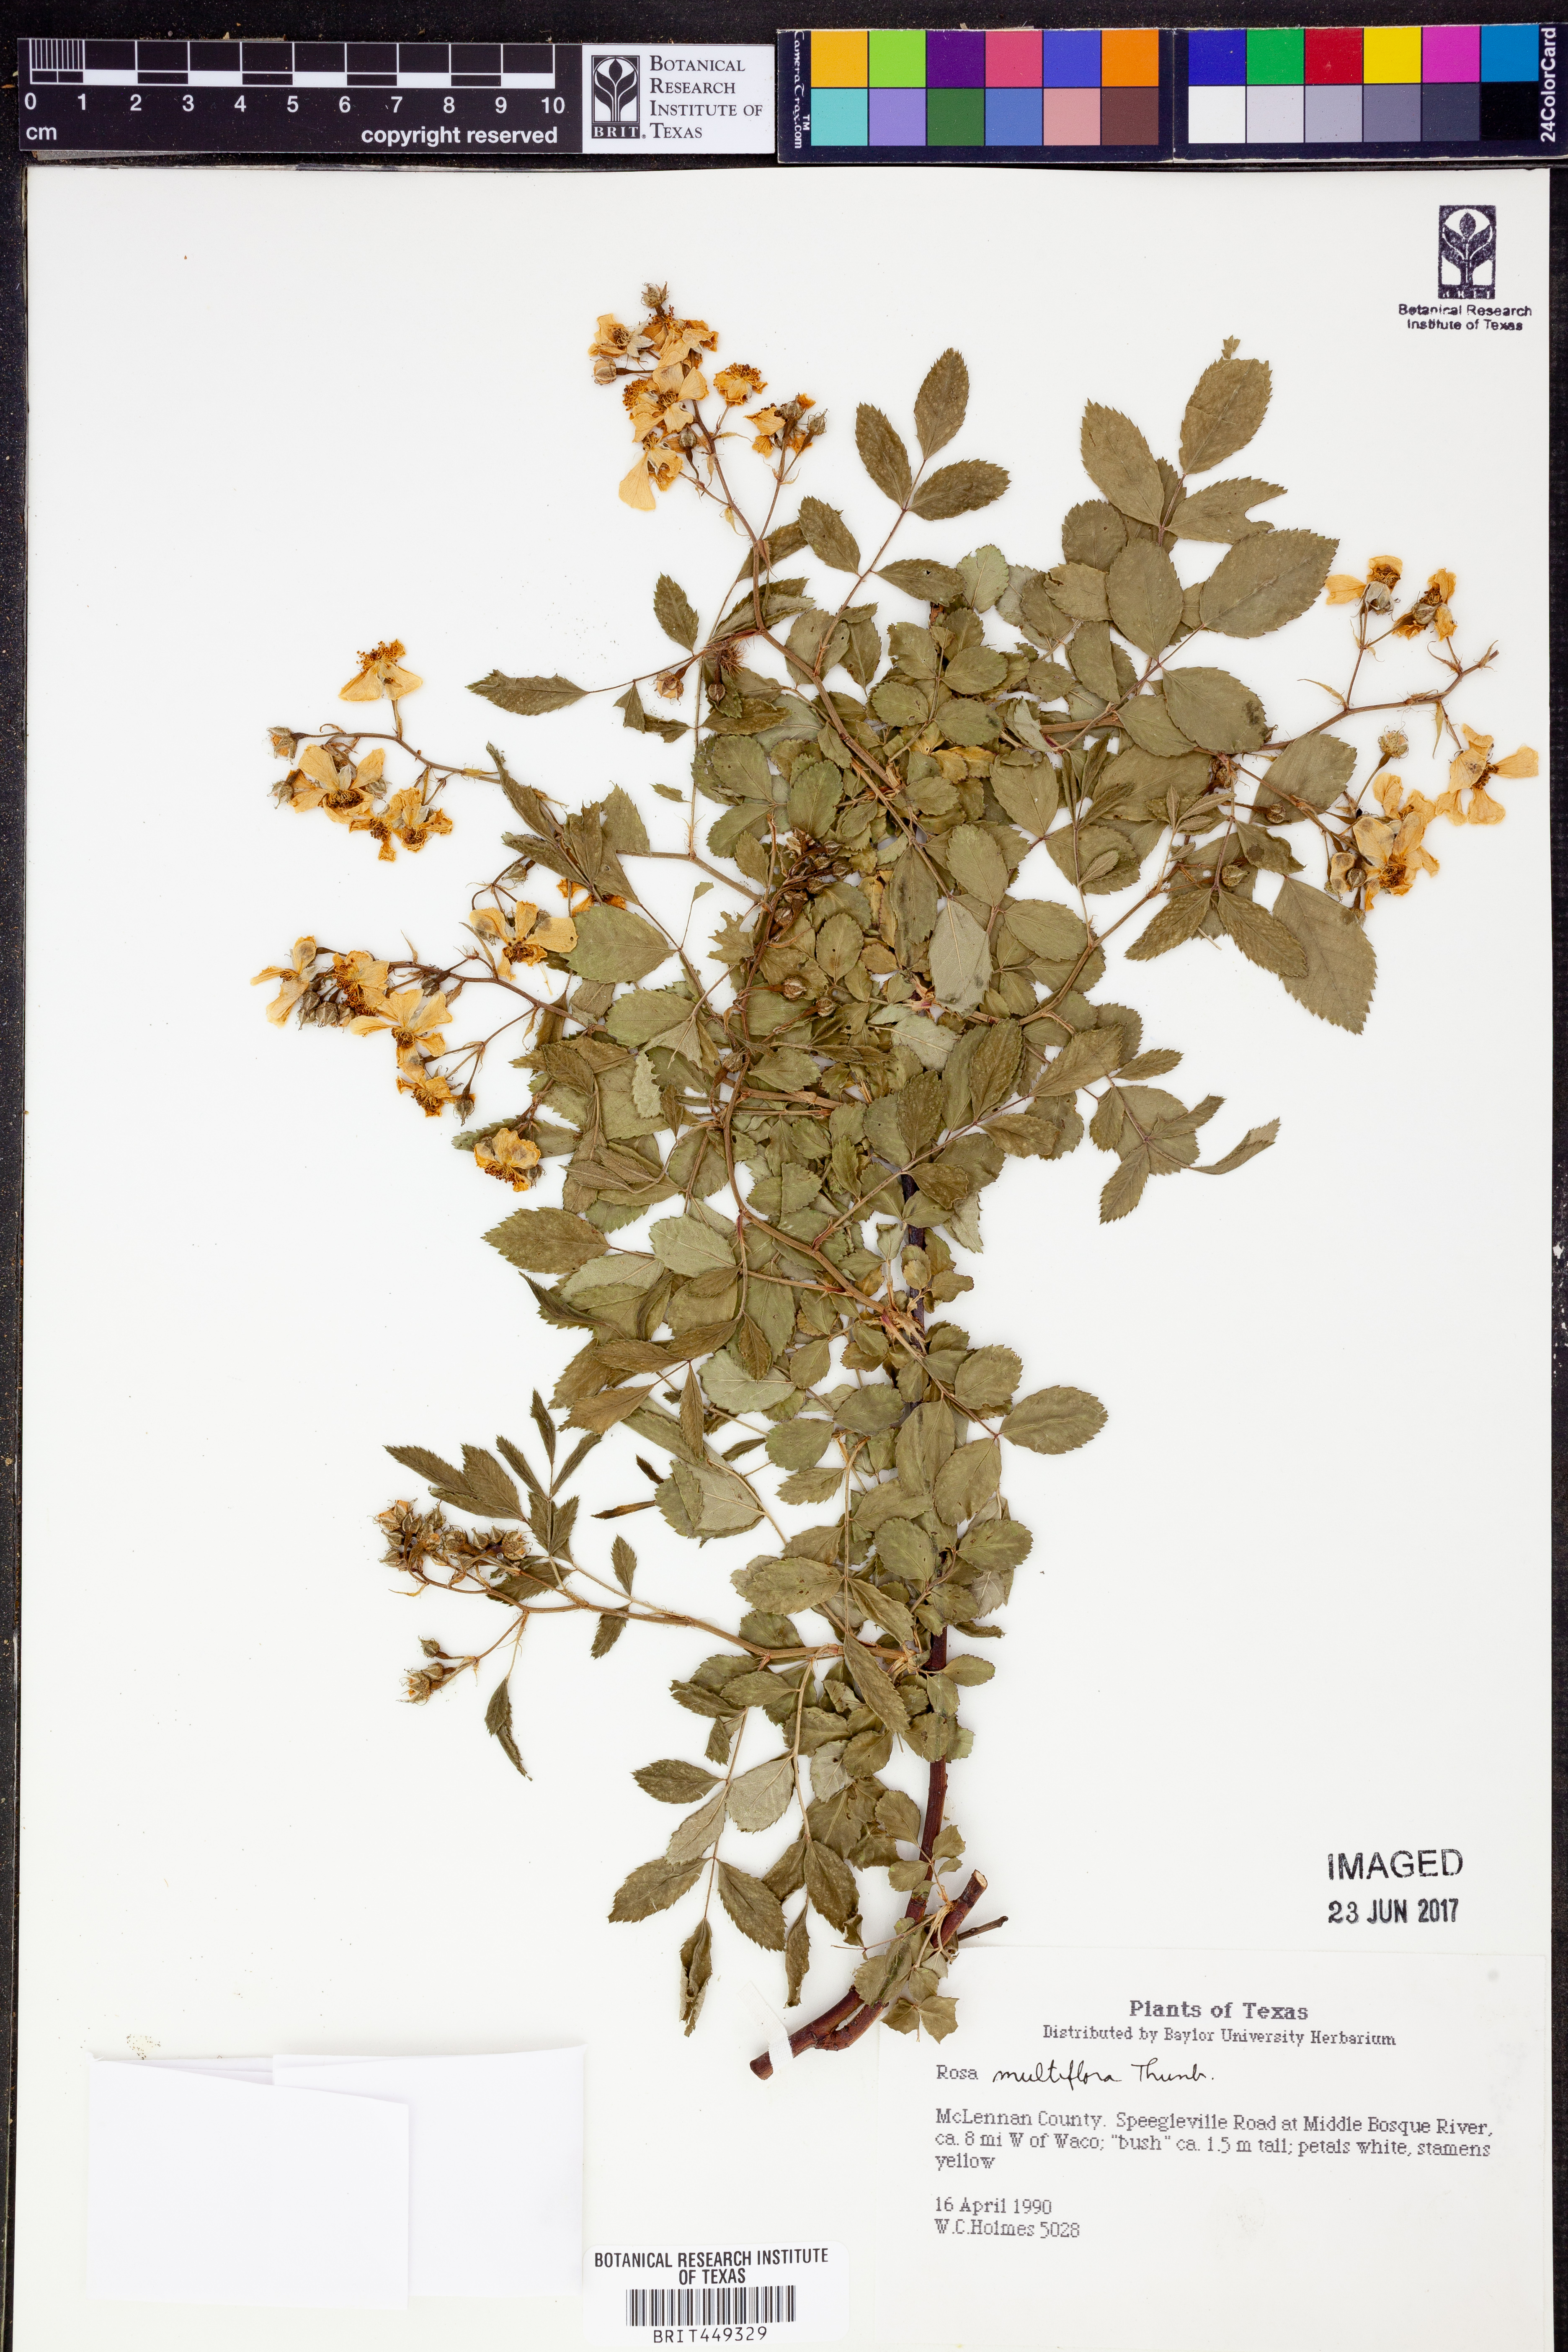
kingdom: Plantae
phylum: Tracheophyta
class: Magnoliopsida
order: Rosales
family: Rosaceae
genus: Rosa
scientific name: Rosa multiflora
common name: Multiflora rose
